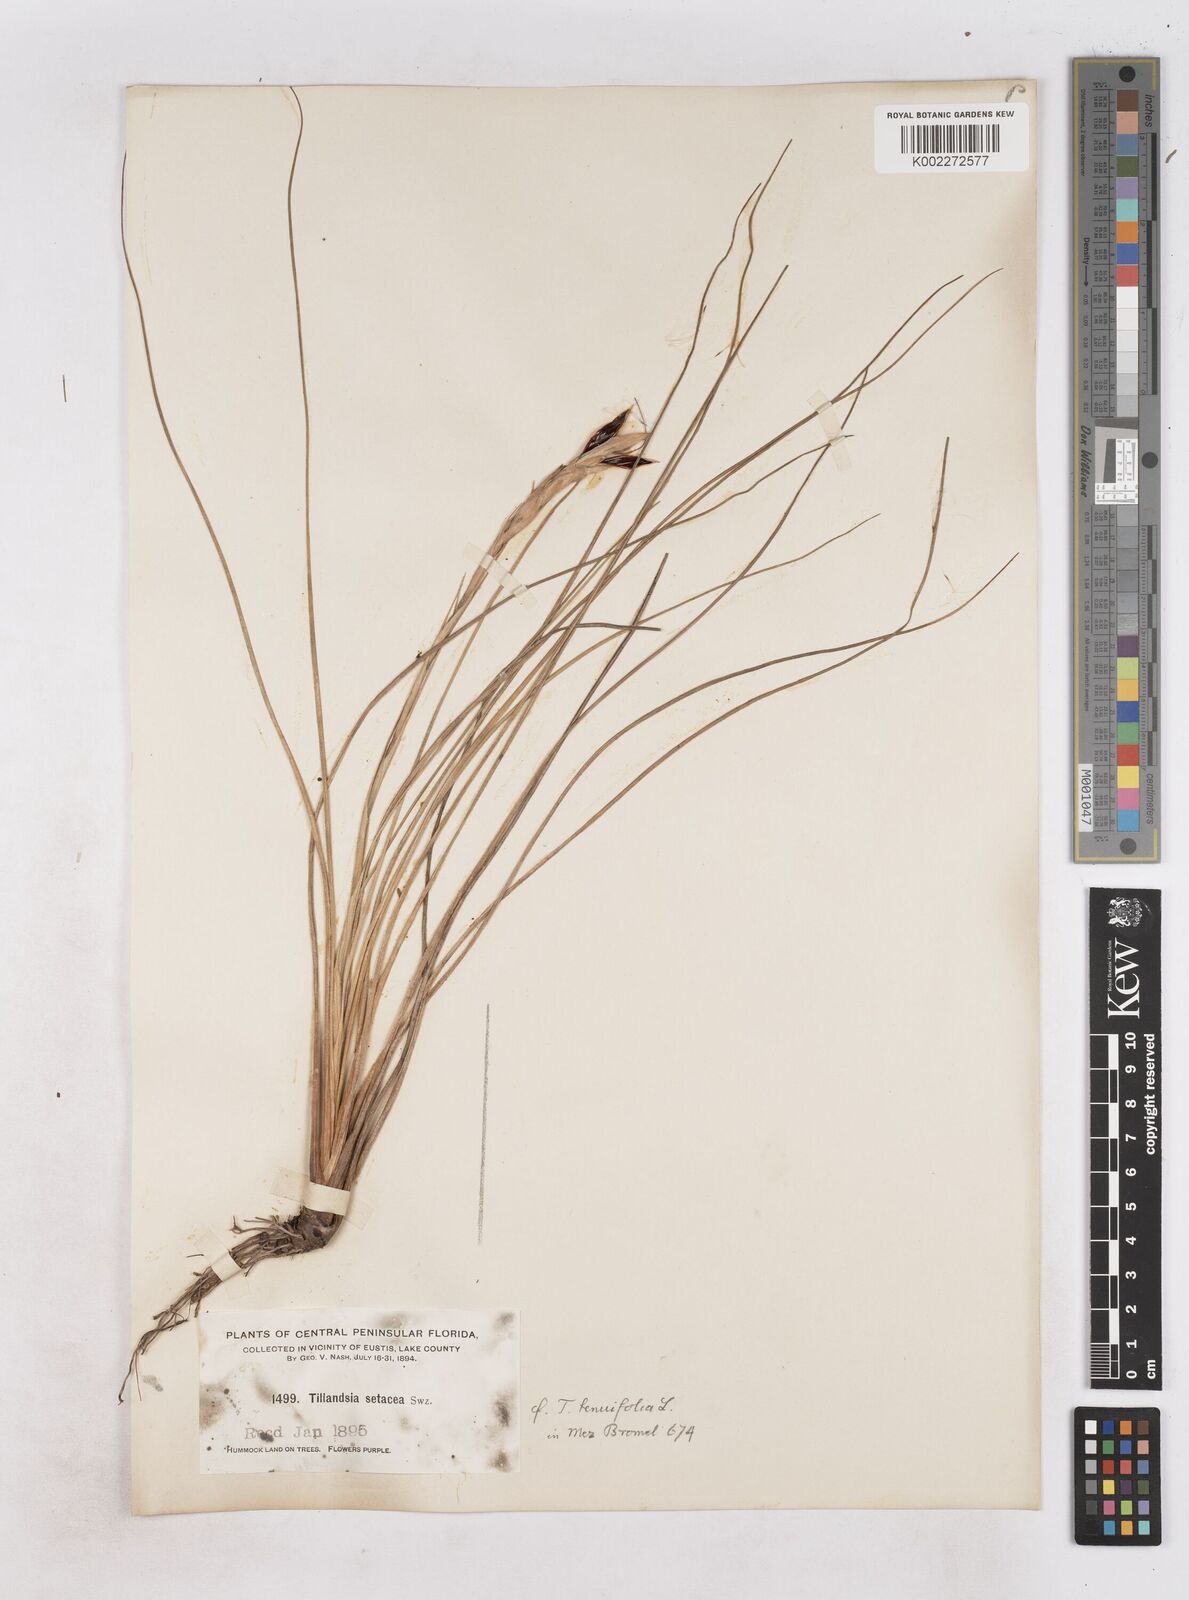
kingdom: Plantae
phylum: Tracheophyta
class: Liliopsida
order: Poales
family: Bromeliaceae
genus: Tillandsia
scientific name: Tillandsia
